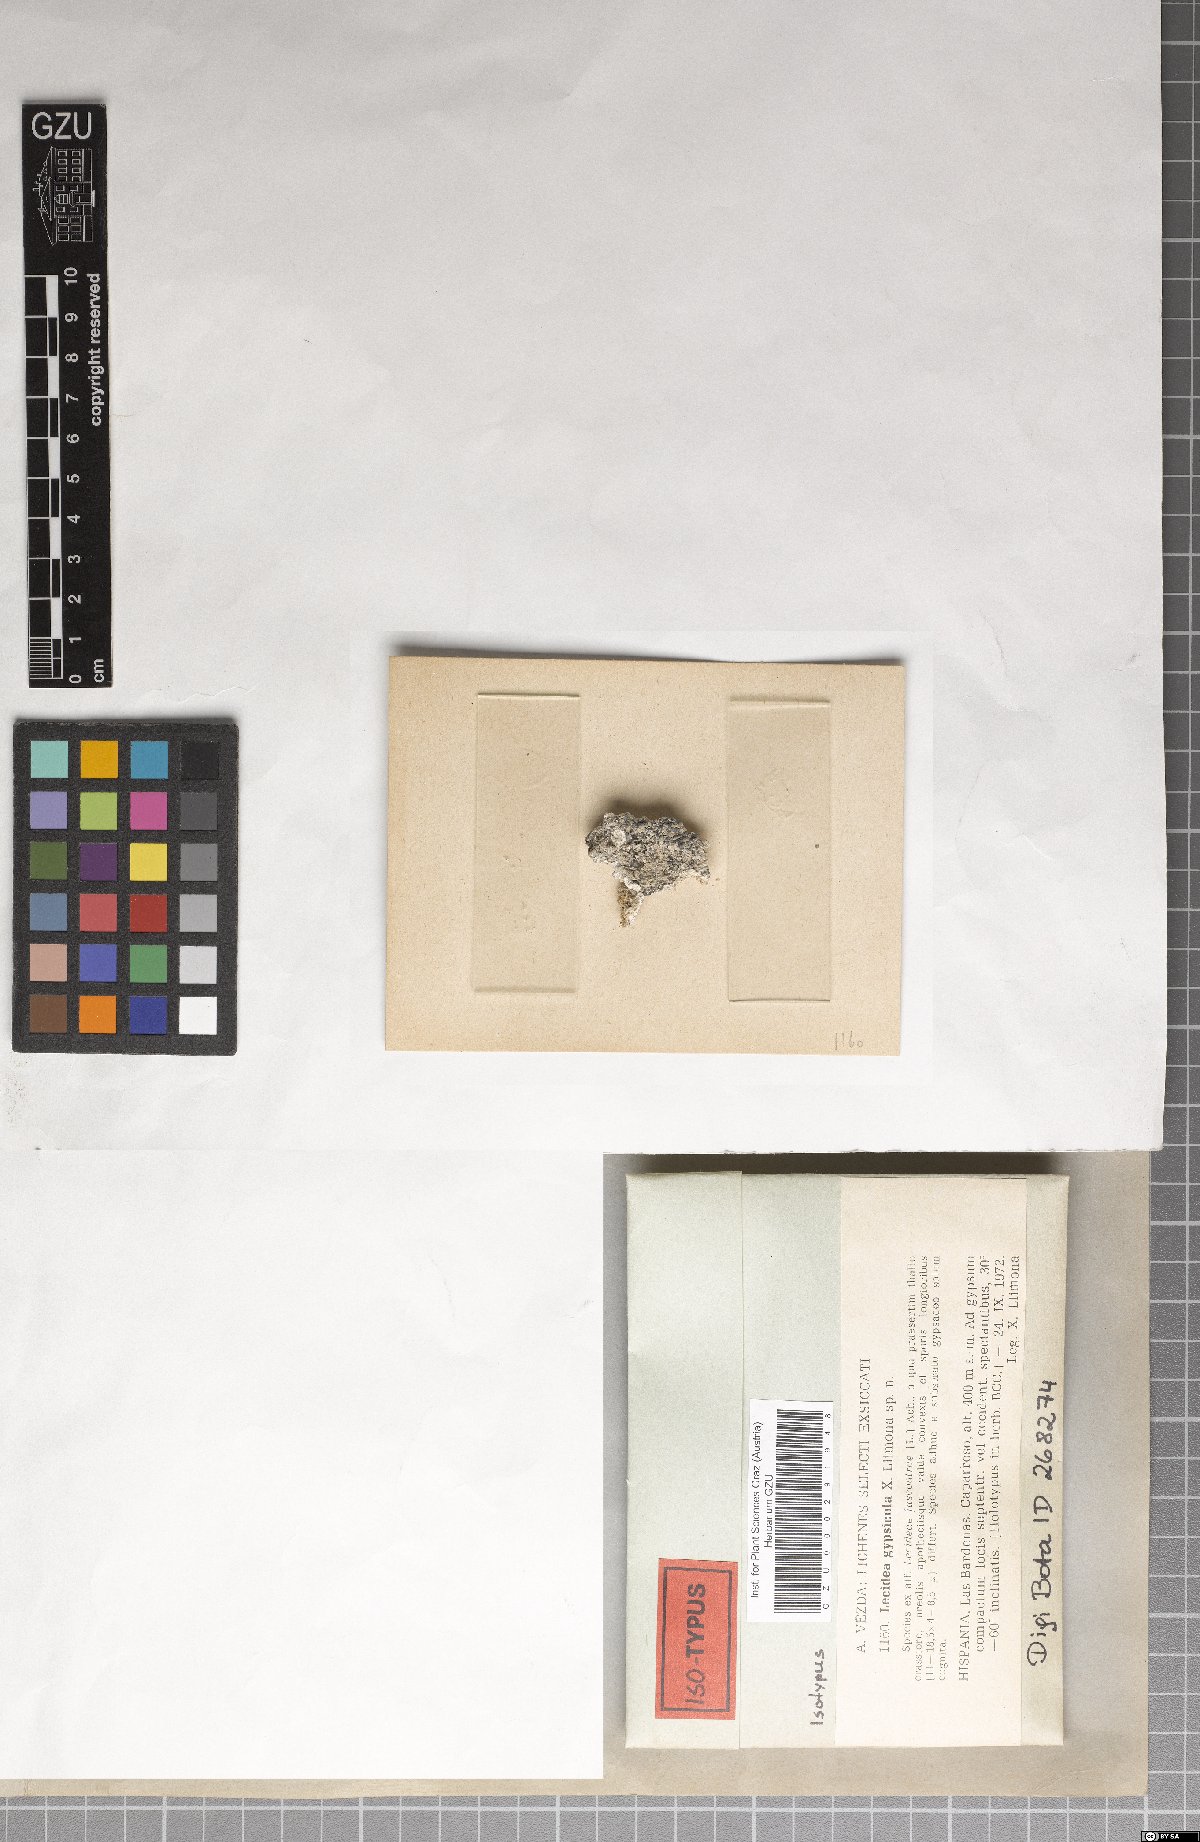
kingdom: Fungi
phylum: Ascomycota
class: Lecanoromycetes
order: Lecideales
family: Lecideaceae
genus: Lecidea
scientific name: Lecidea gypsicola
